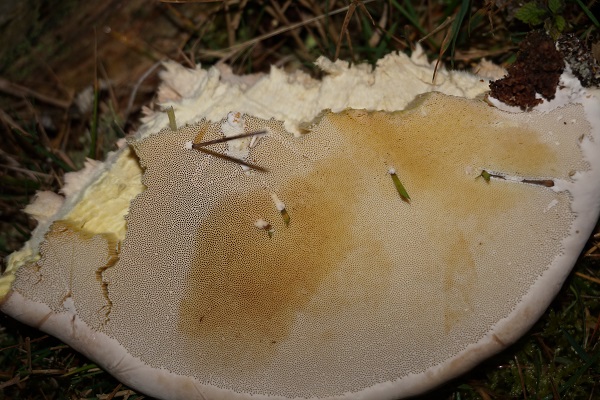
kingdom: Fungi
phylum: Basidiomycota
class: Agaricomycetes
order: Polyporales
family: Fomitopsidaceae
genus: Fomitopsis
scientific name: Fomitopsis pinicola
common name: randbæltet hovporesvamp
